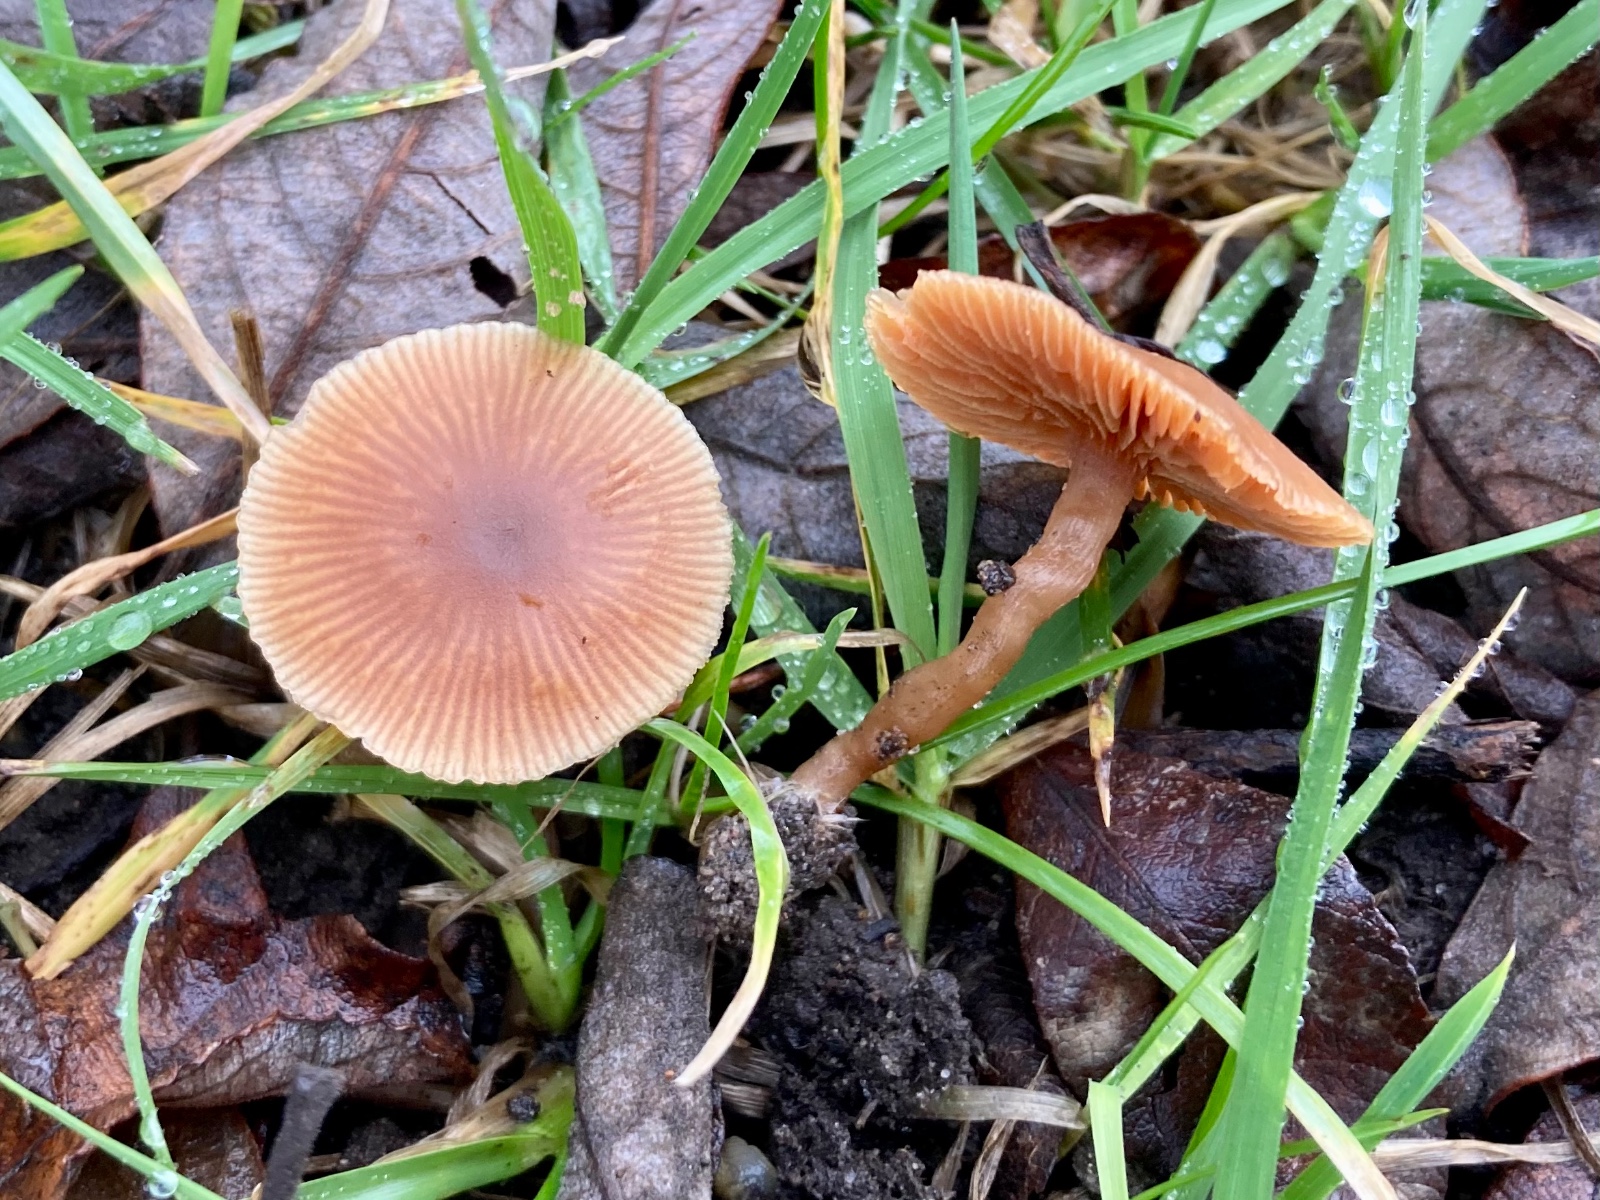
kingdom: Fungi
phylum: Basidiomycota
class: Agaricomycetes
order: Agaricales
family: Tubariaceae
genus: Tubaria
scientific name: Tubaria furfuracea
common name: kliddet fnughat
